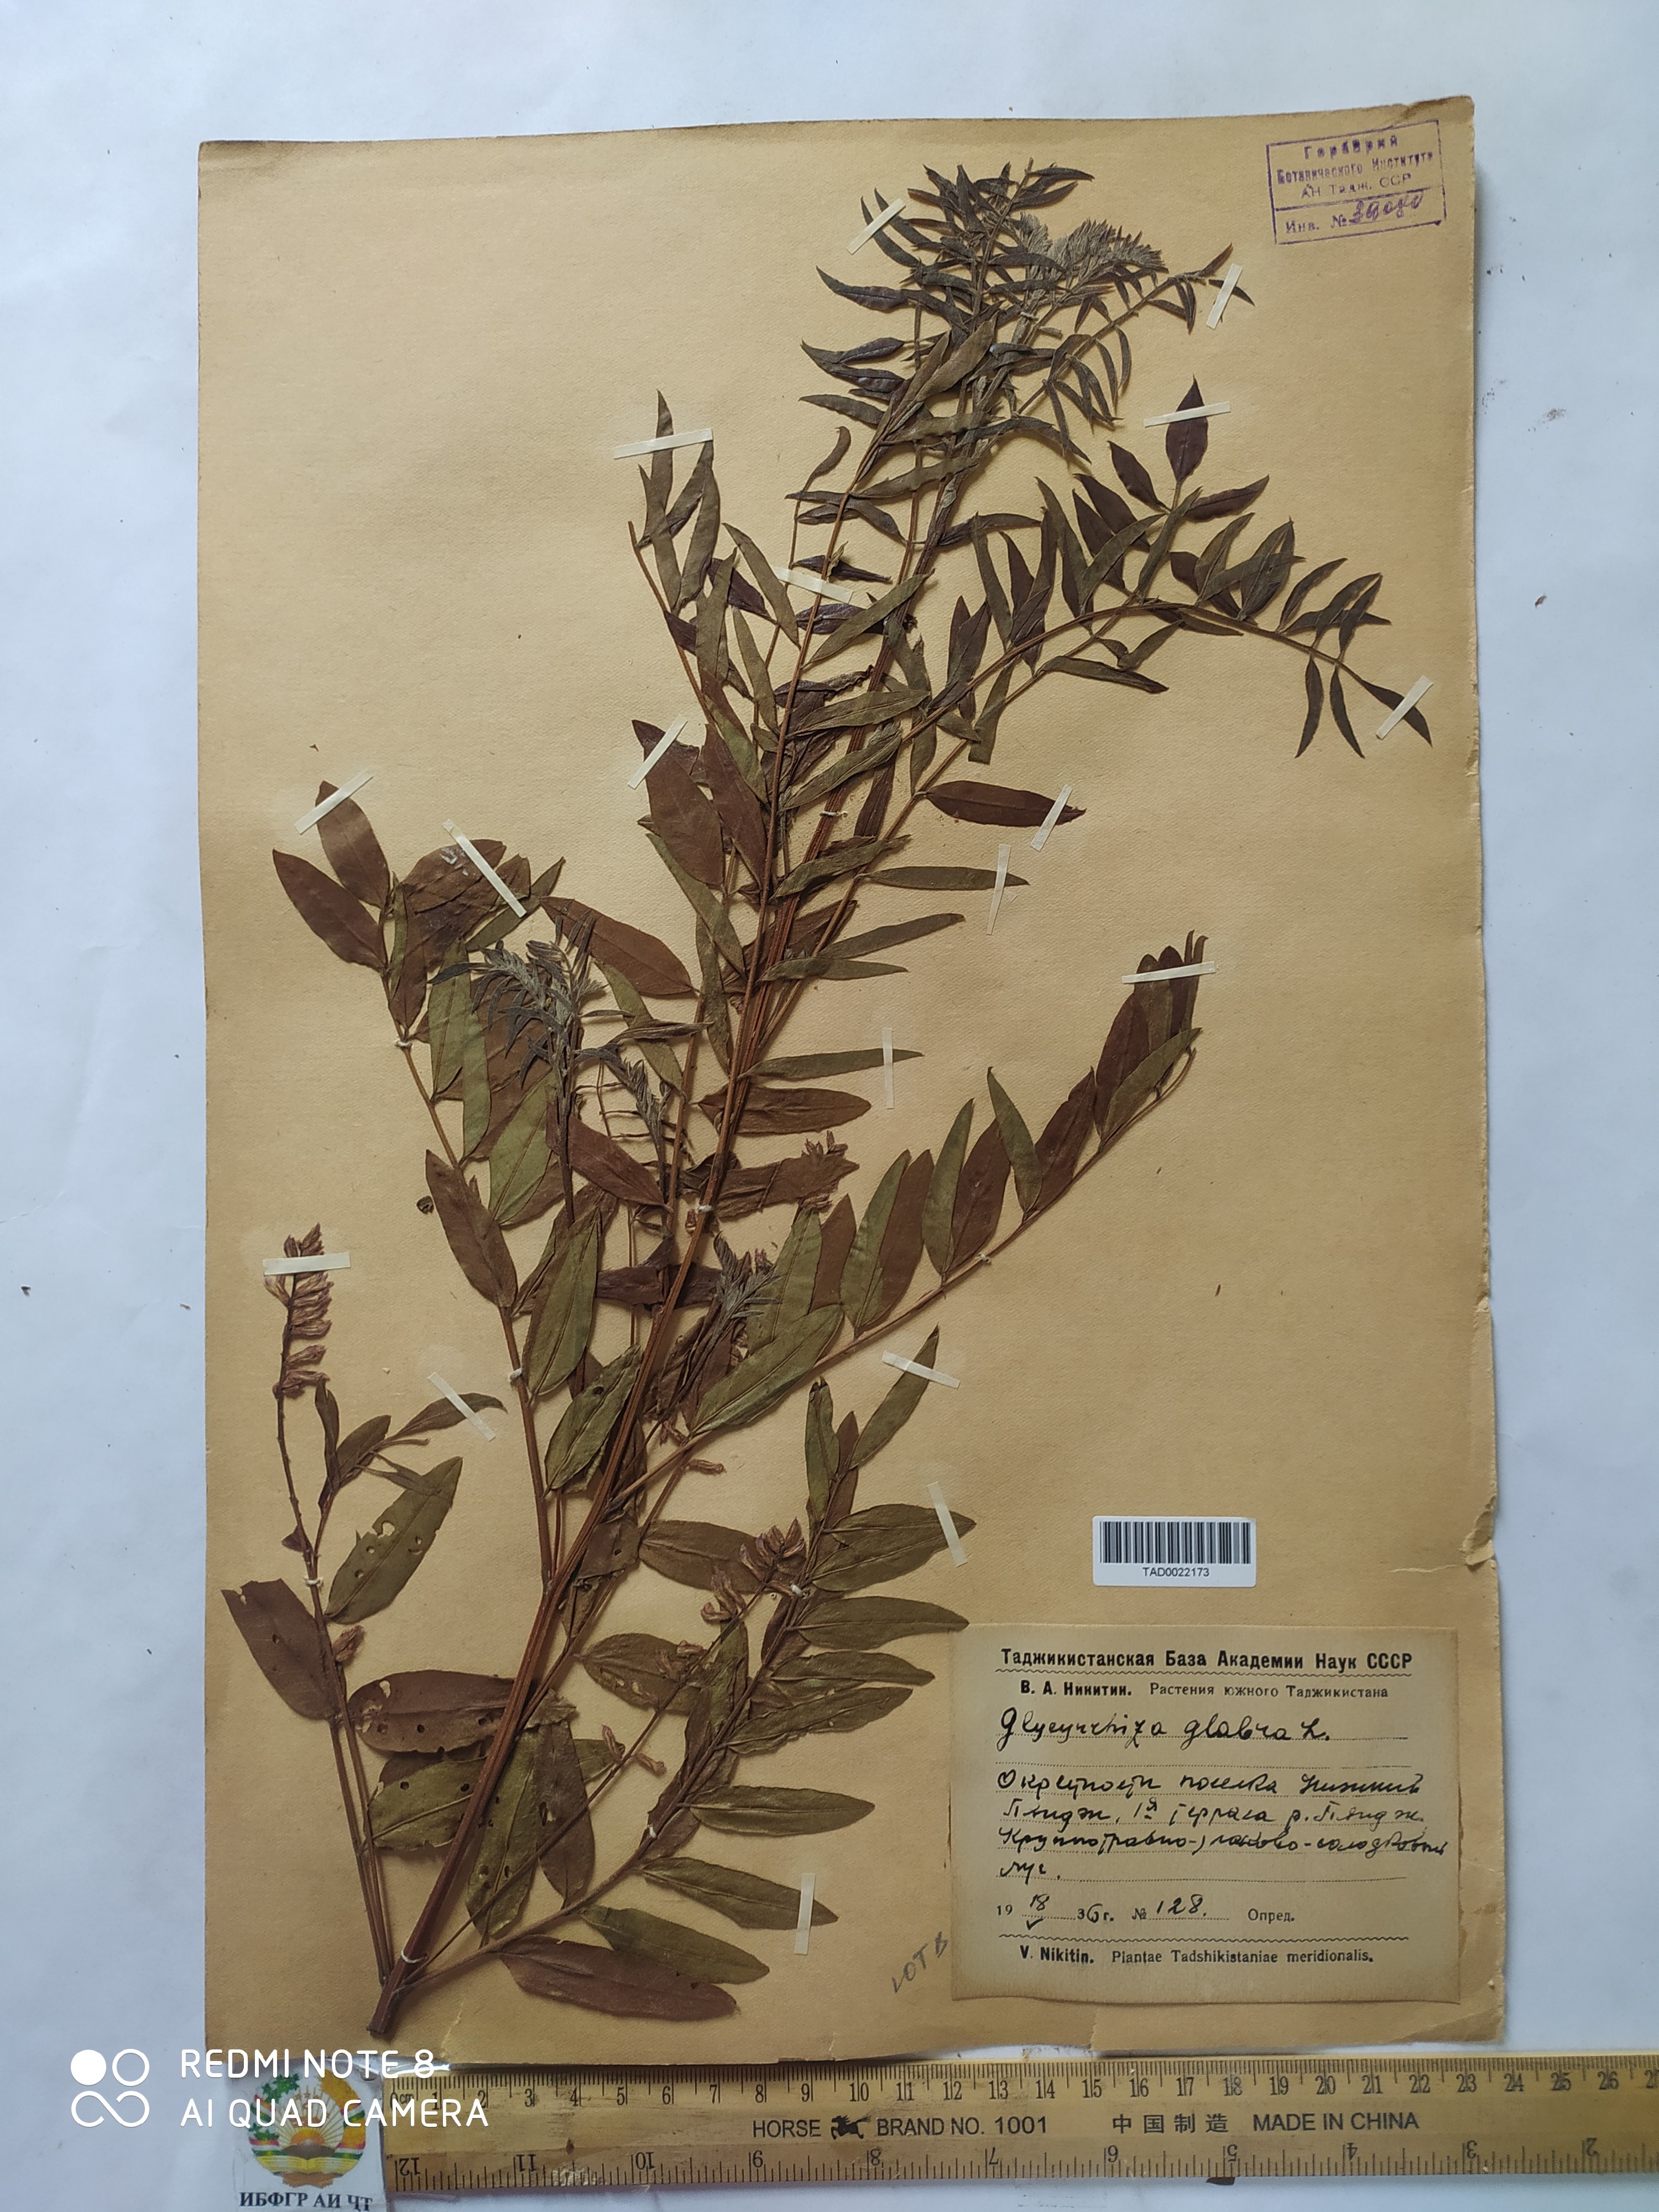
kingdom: Plantae
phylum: Tracheophyta
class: Magnoliopsida
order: Fabales
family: Fabaceae
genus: Glycyrrhiza
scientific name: Glycyrrhiza glabra
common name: Liquorice
